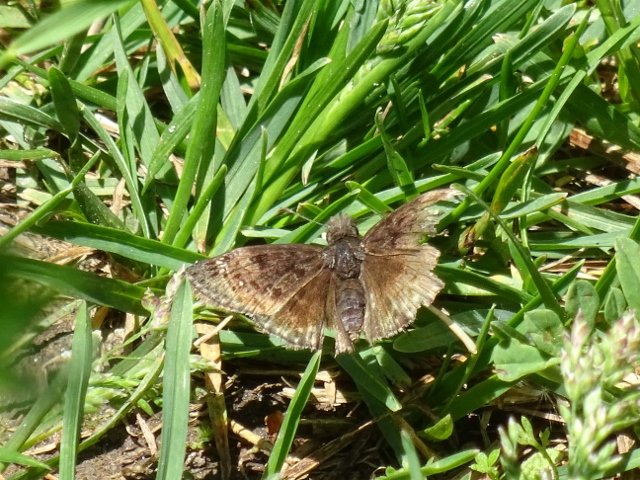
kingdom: Animalia
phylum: Arthropoda
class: Insecta
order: Lepidoptera
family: Hesperiidae
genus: Gesta
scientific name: Gesta
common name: Juvenal's Duskywing
